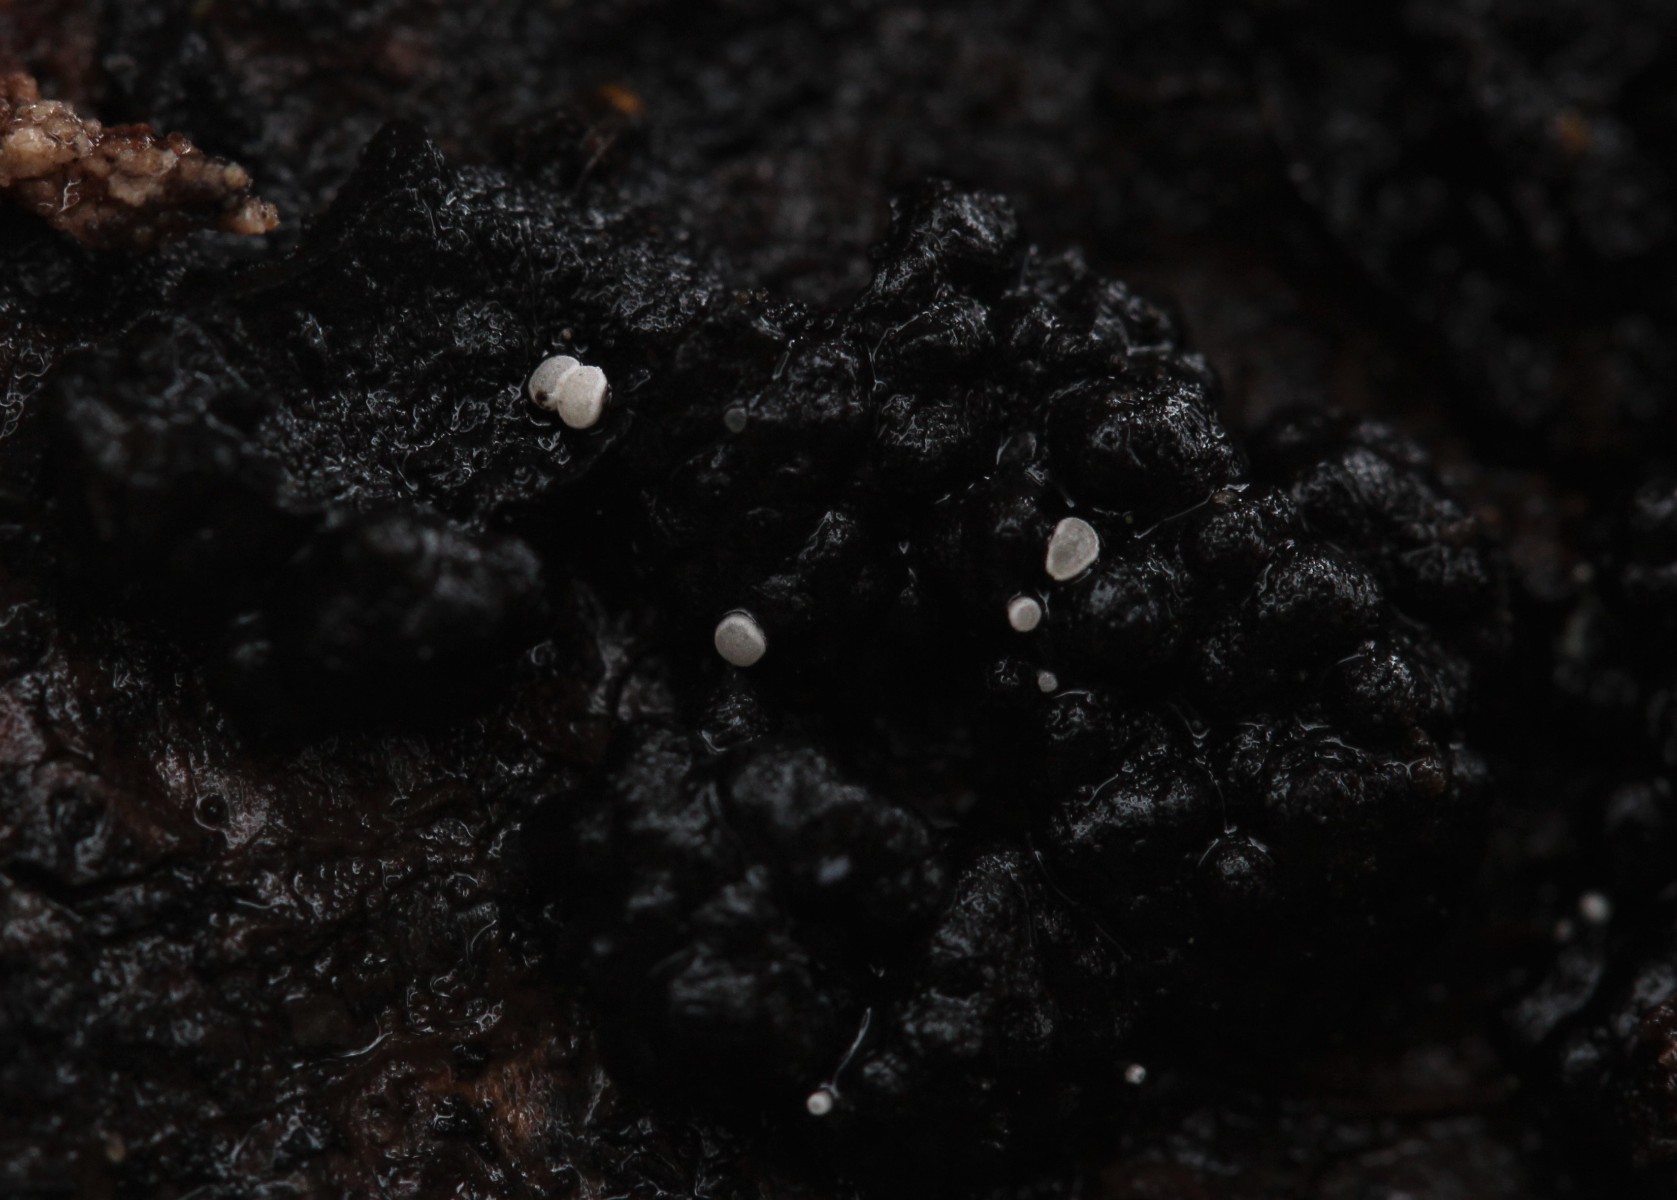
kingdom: Fungi
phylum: Ascomycota
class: Leotiomycetes
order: Helotiales
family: Hyaloscyphaceae
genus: Polydesmia
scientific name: Polydesmia pruinosa
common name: dunskive
